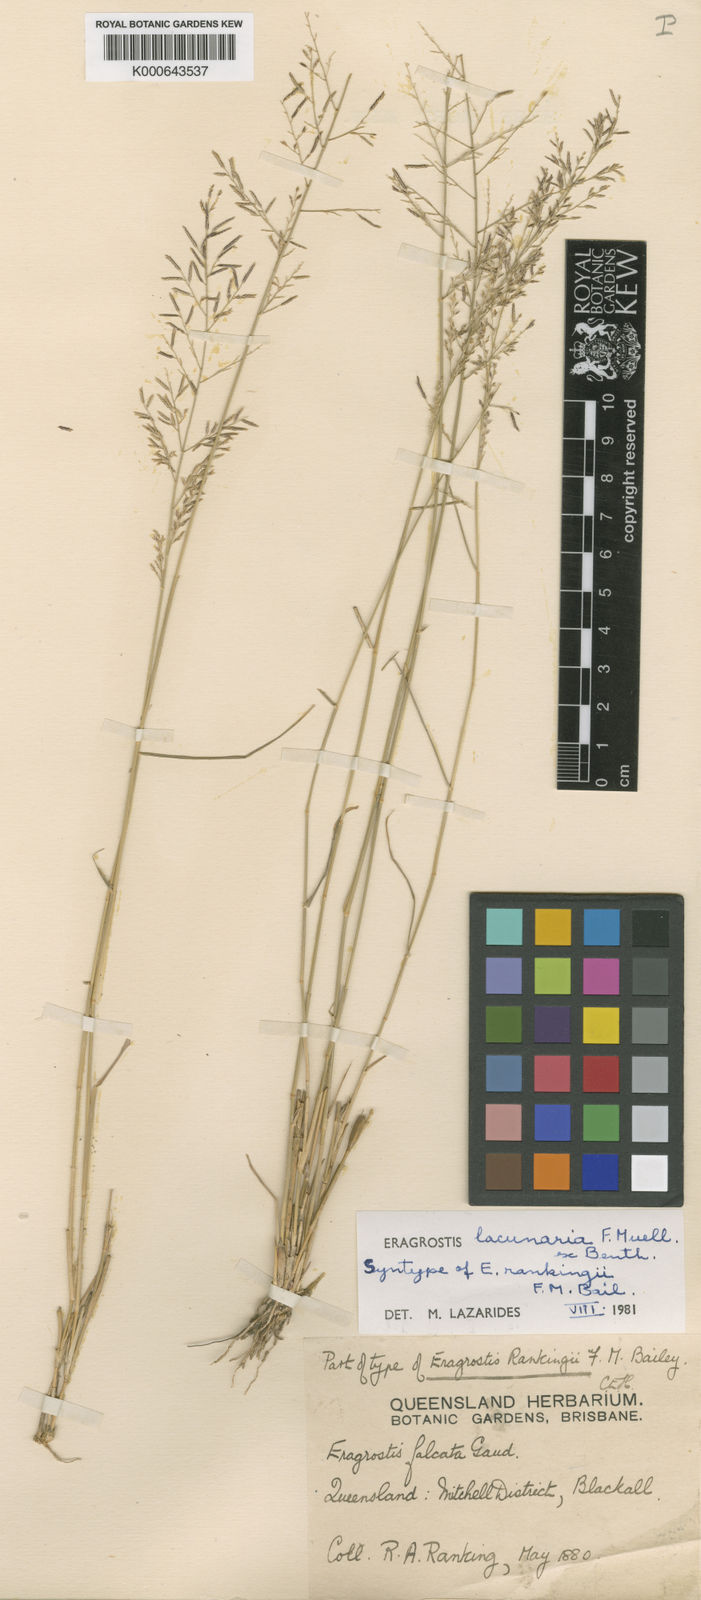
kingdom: Plantae
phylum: Tracheophyta
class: Liliopsida
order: Poales
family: Poaceae
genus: Eragrostis
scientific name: Eragrostis lacunaria
